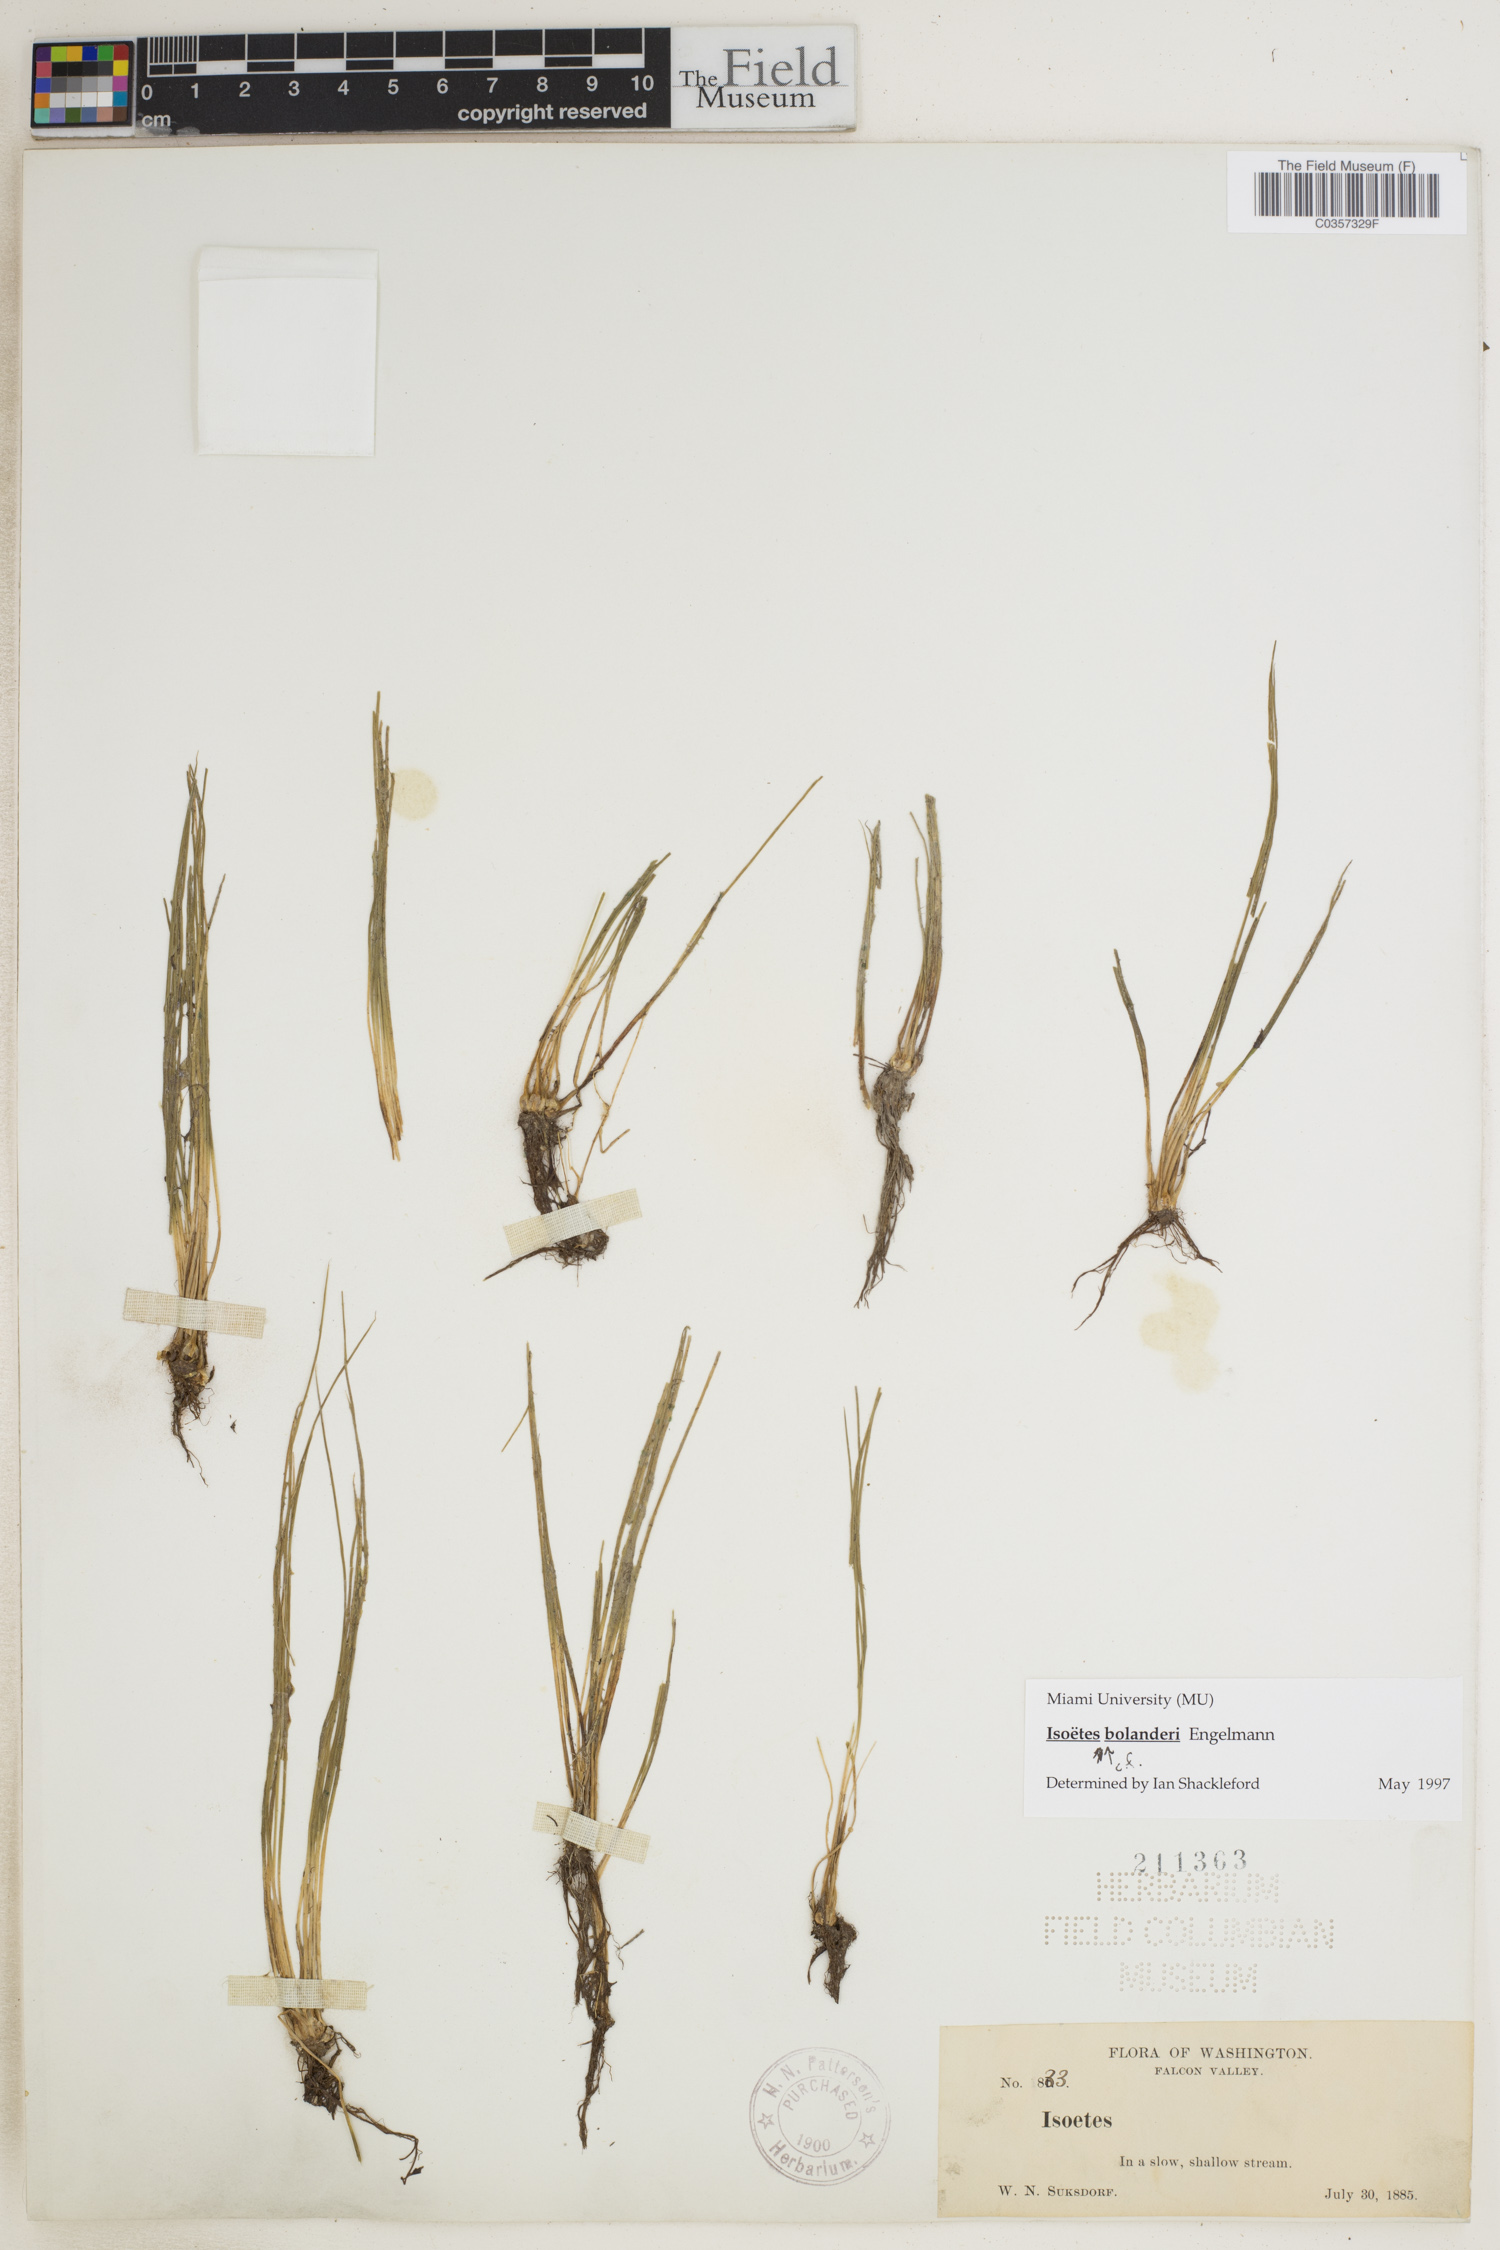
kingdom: Plantae
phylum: Tracheophyta
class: Lycopodiopsida
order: Isoetales
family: Isoetaceae
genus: Isoetes
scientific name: Isoetes bolanderi
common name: Bolander's quillwort
